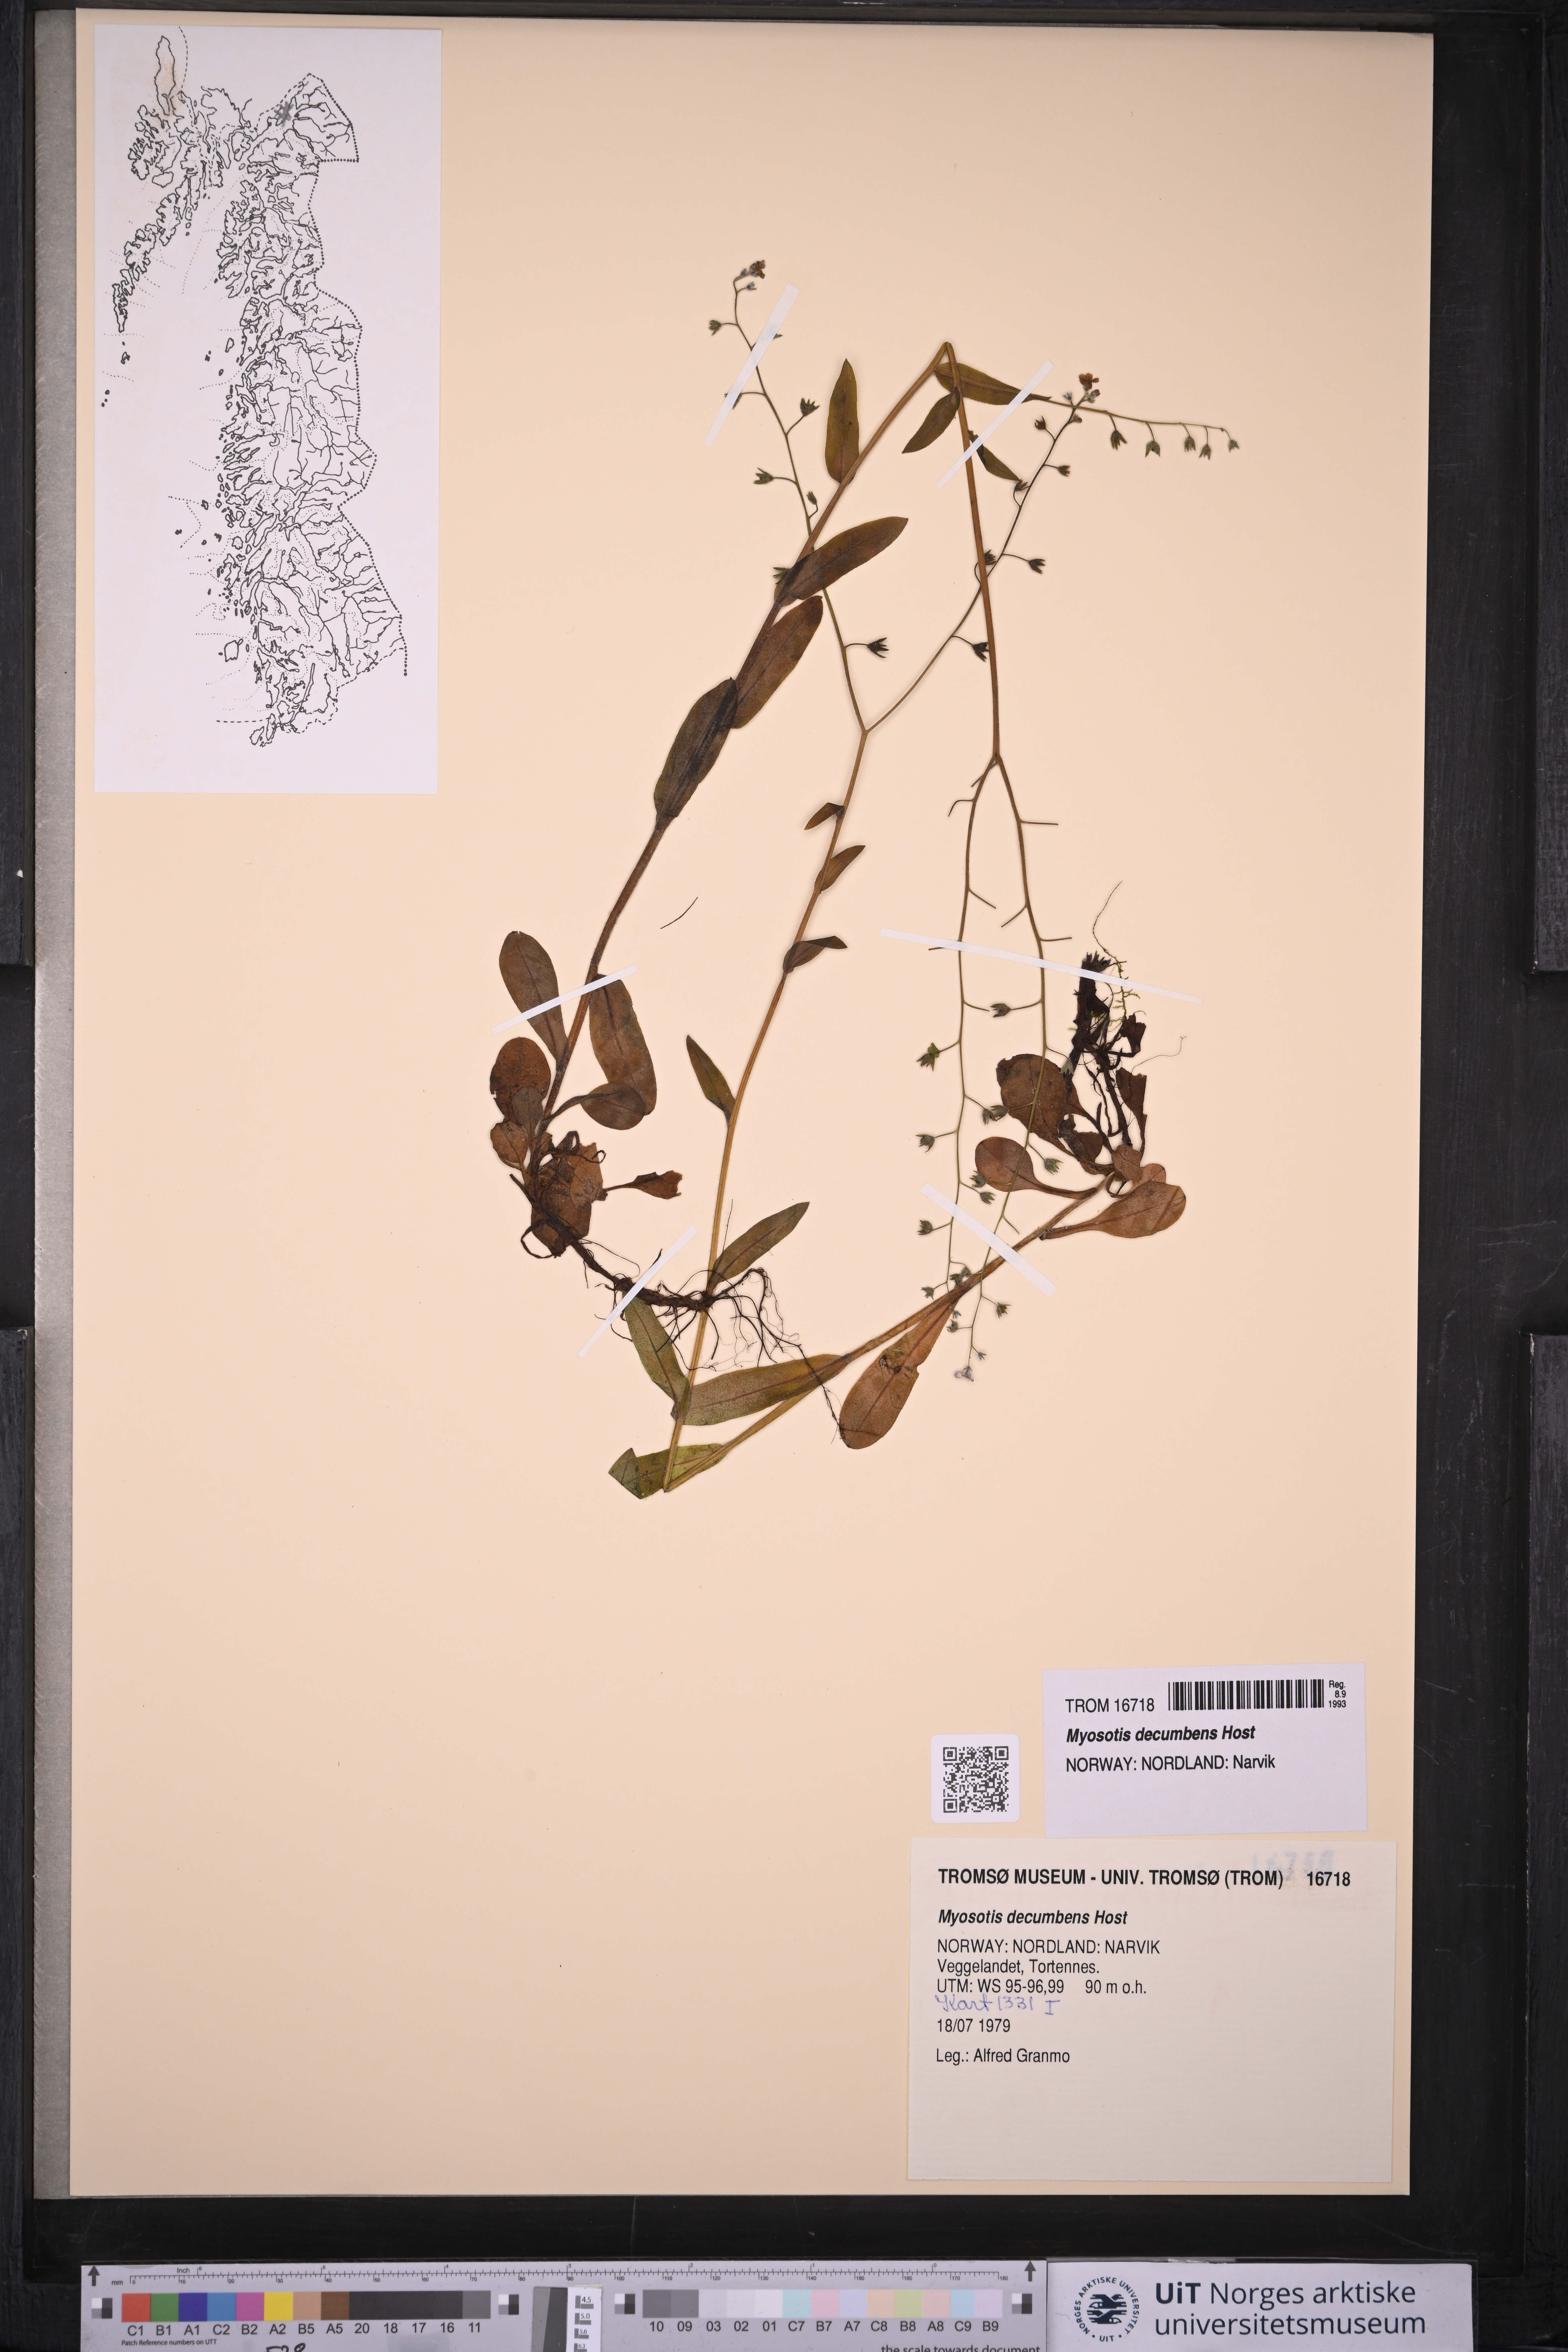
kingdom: Plantae
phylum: Tracheophyta
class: Magnoliopsida
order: Boraginales
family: Boraginaceae
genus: Myosotis
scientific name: Myosotis decumbens
